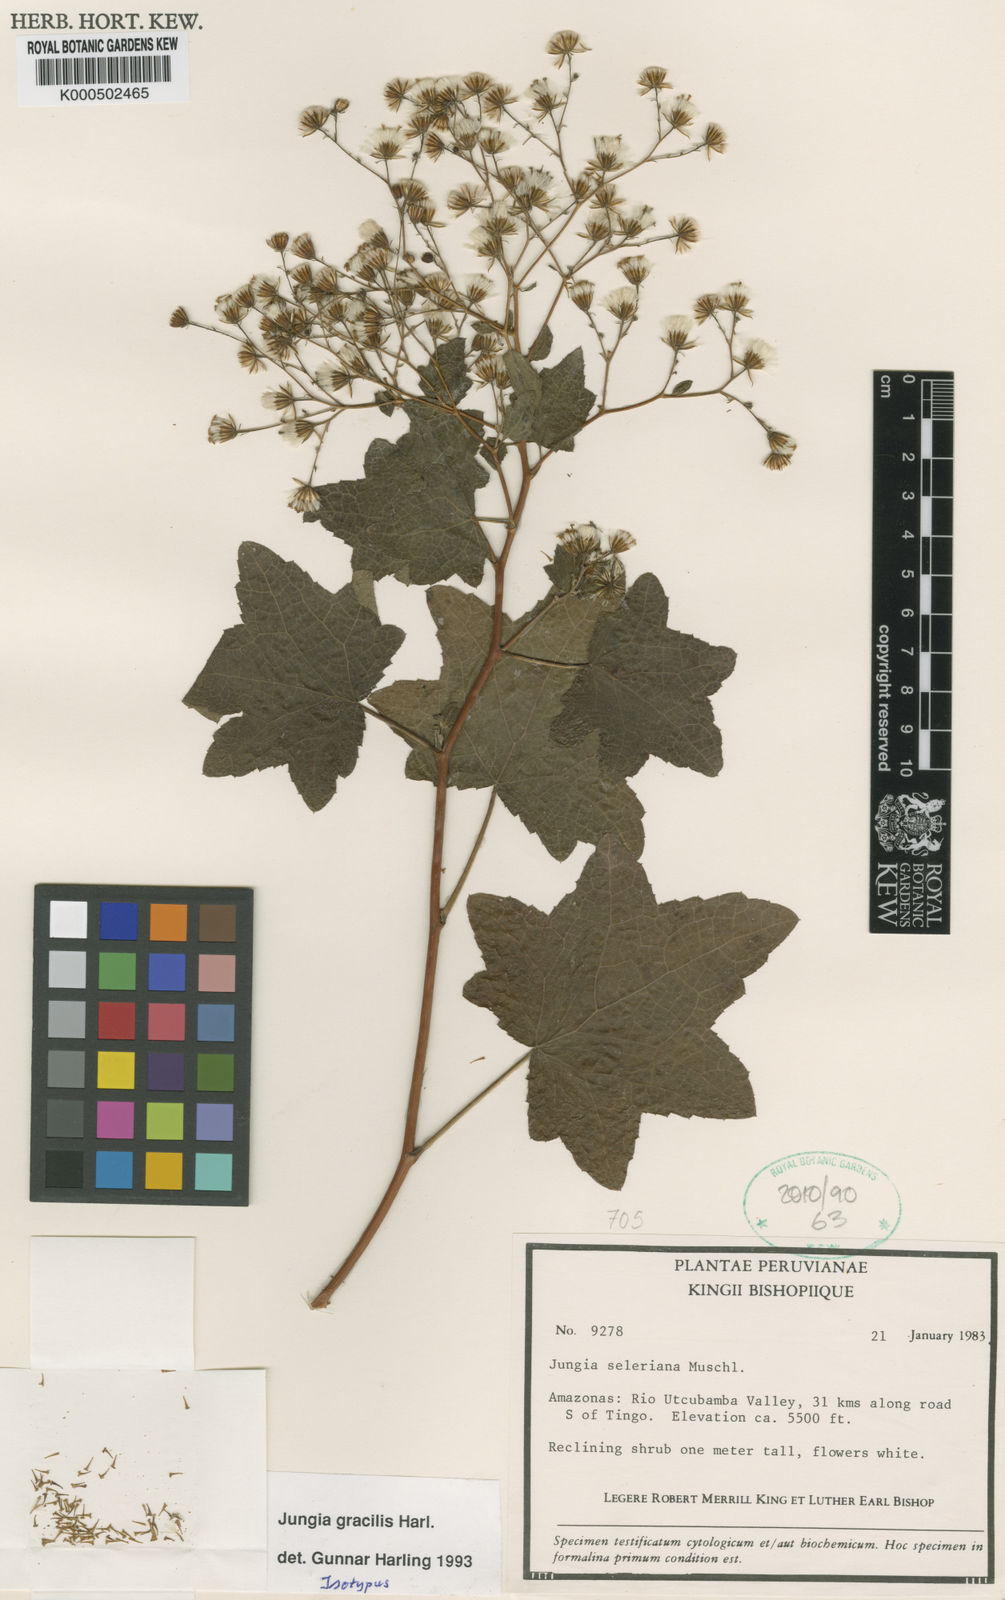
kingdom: Plantae
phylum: Tracheophyta
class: Magnoliopsida
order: Asterales
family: Asteraceae
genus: Jungia
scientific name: Jungia gracilis
